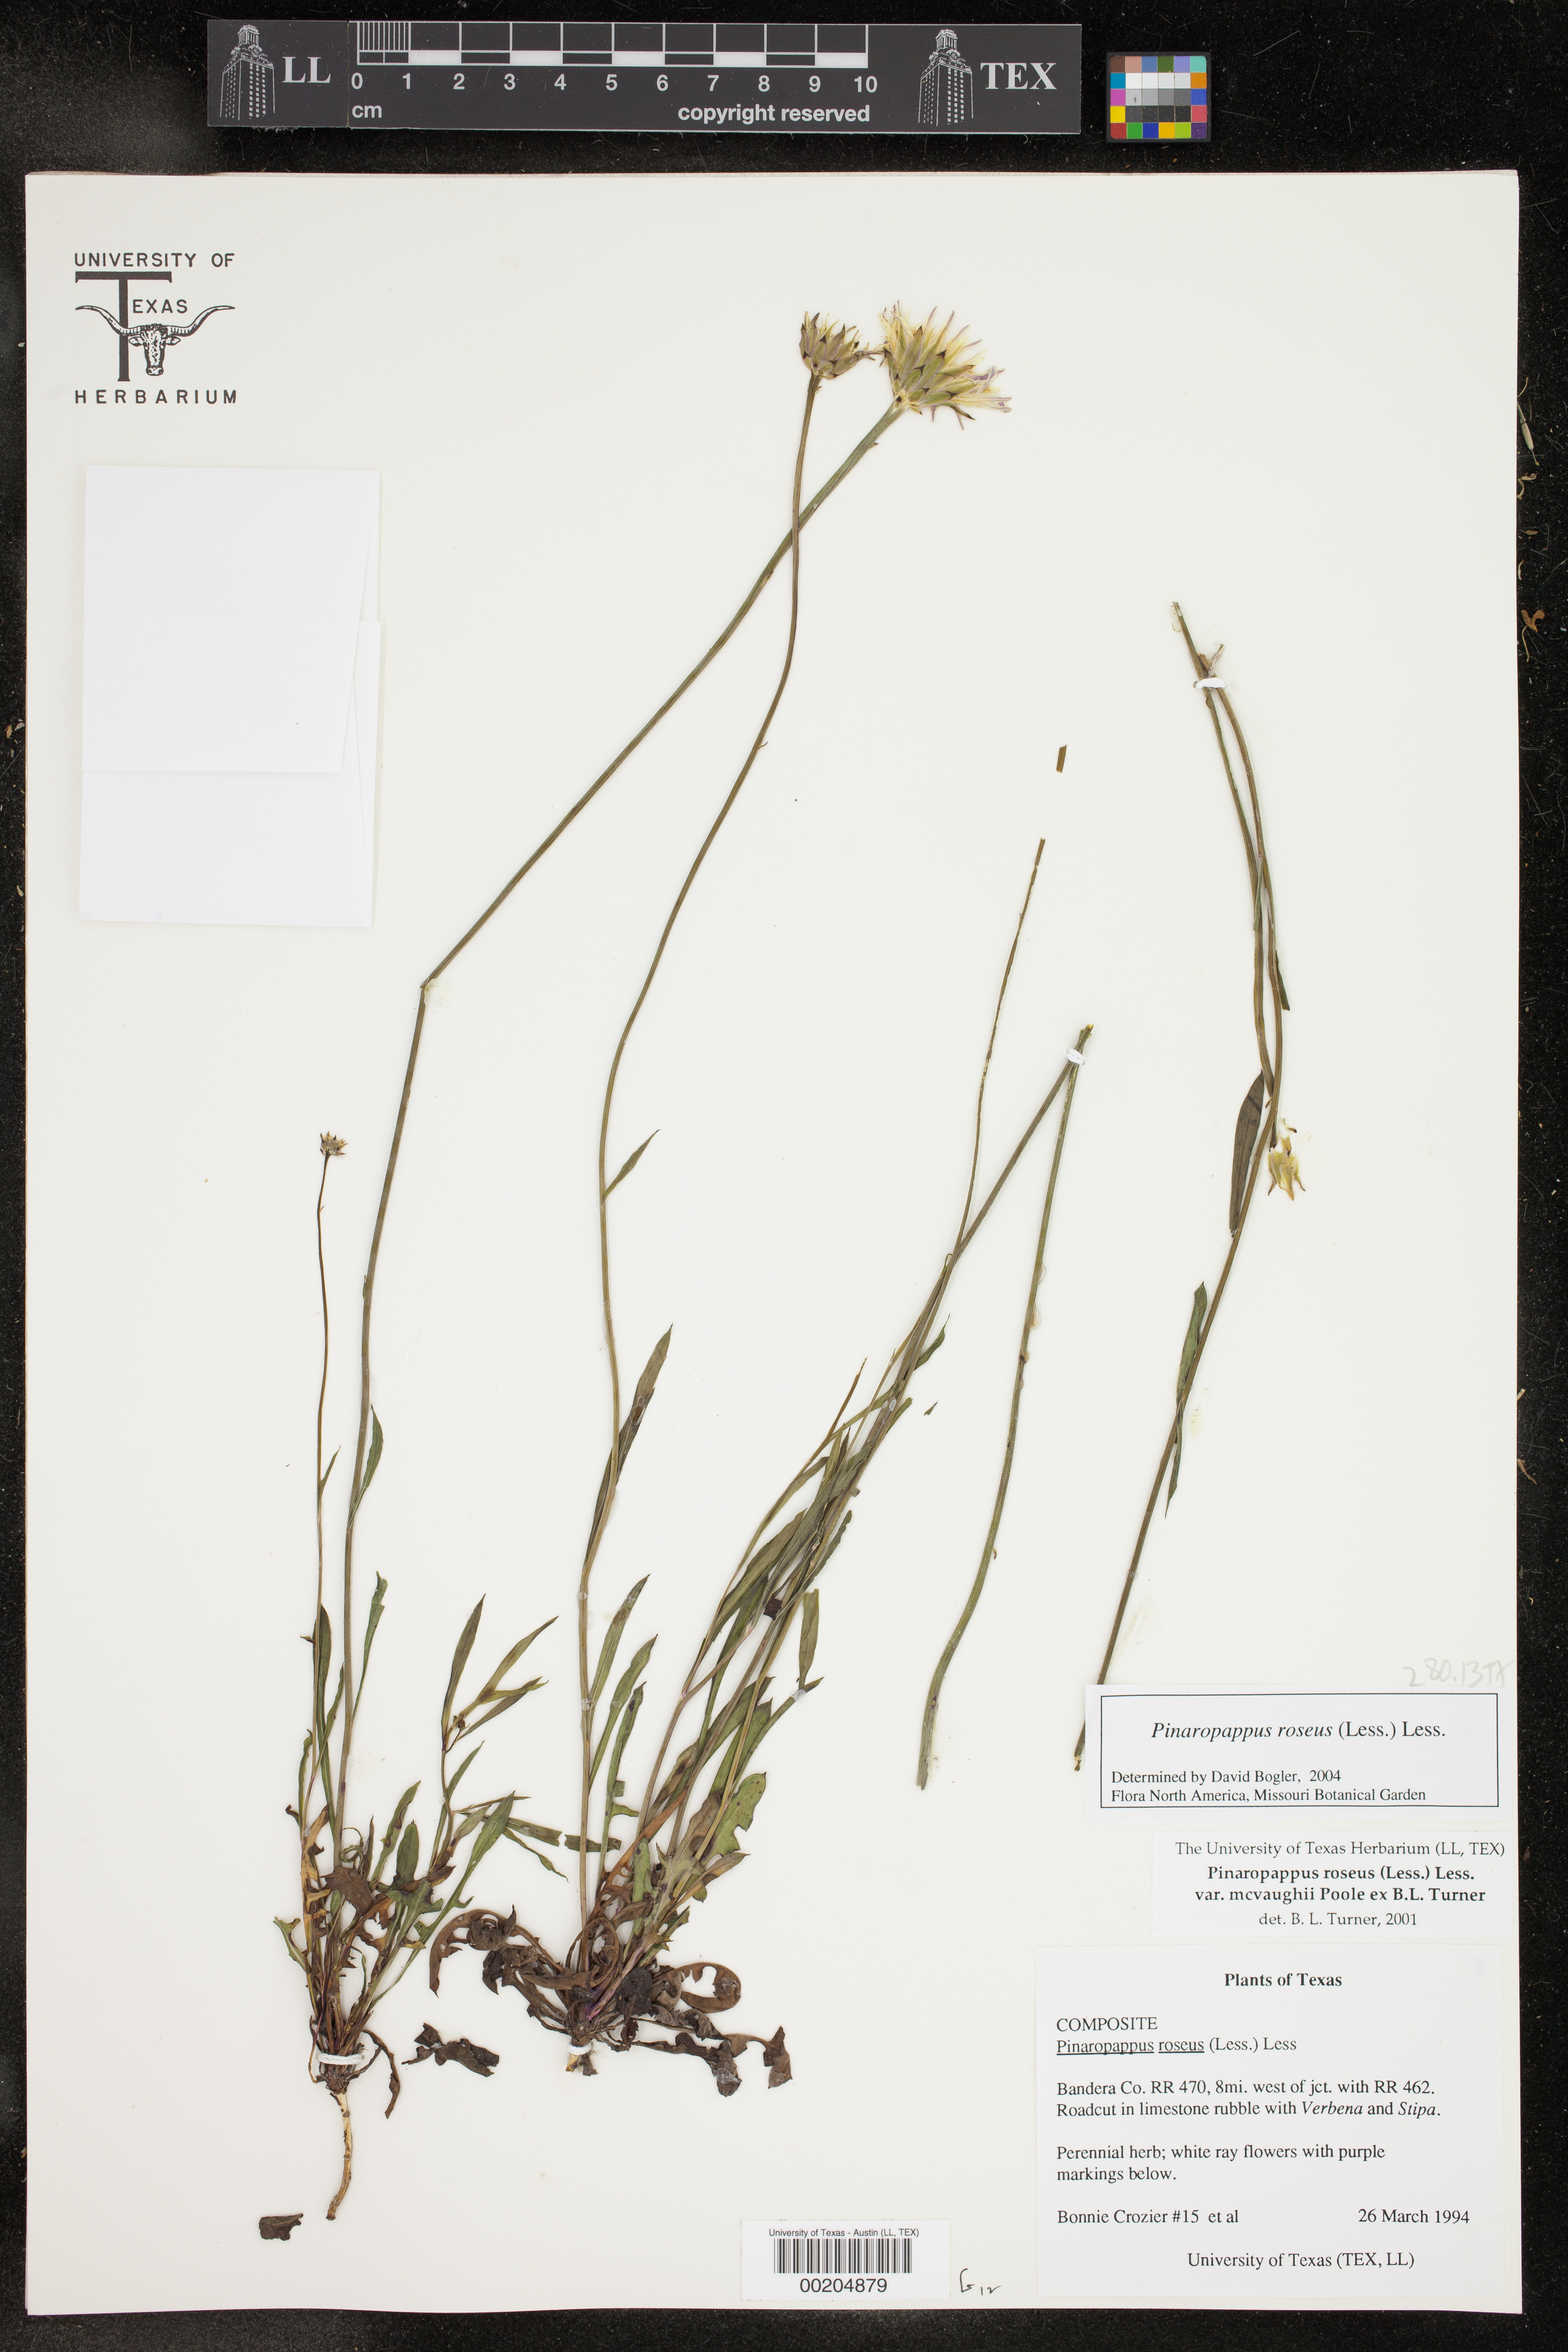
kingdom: Plantae
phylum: Tracheophyta
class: Magnoliopsida
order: Asterales
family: Asteraceae
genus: Pinaropappus
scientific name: Pinaropappus roseus
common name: Rock-lettuce
